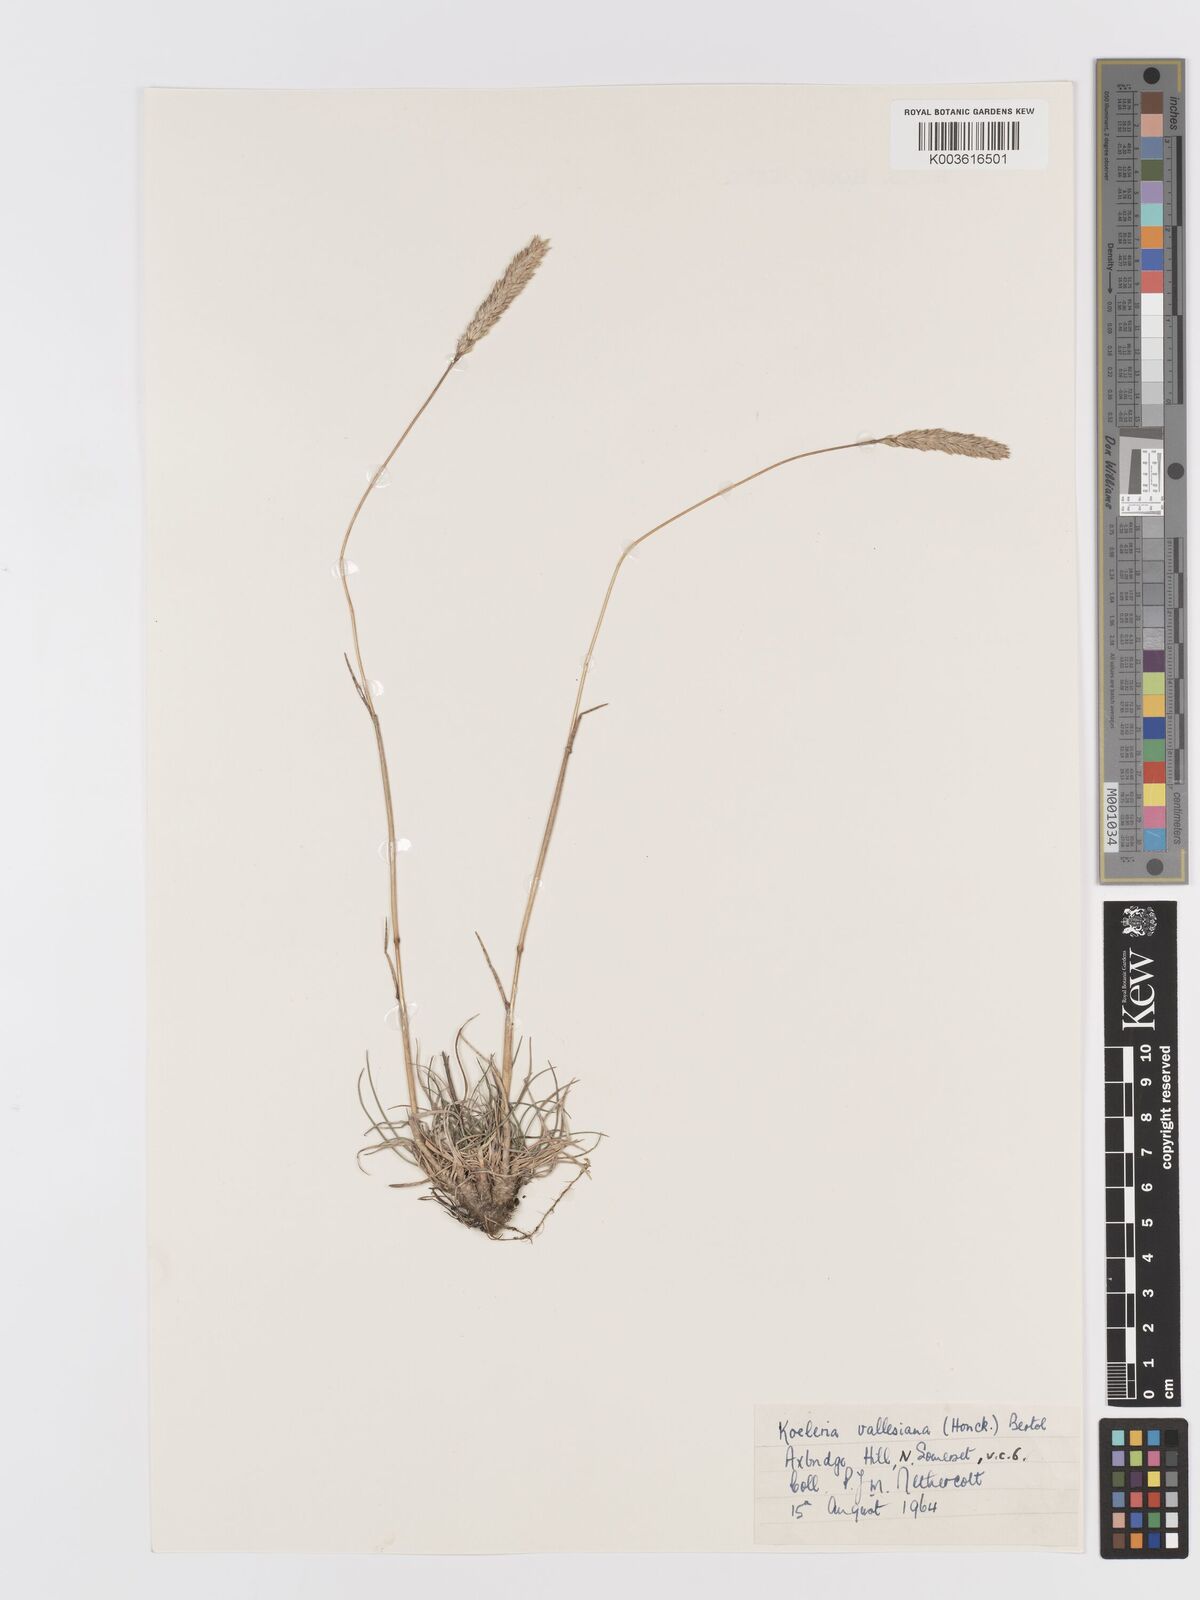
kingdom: Plantae
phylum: Tracheophyta
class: Liliopsida
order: Poales
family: Poaceae
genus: Koeleria
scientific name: Koeleria vallesiana
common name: Somerset hair-grass
